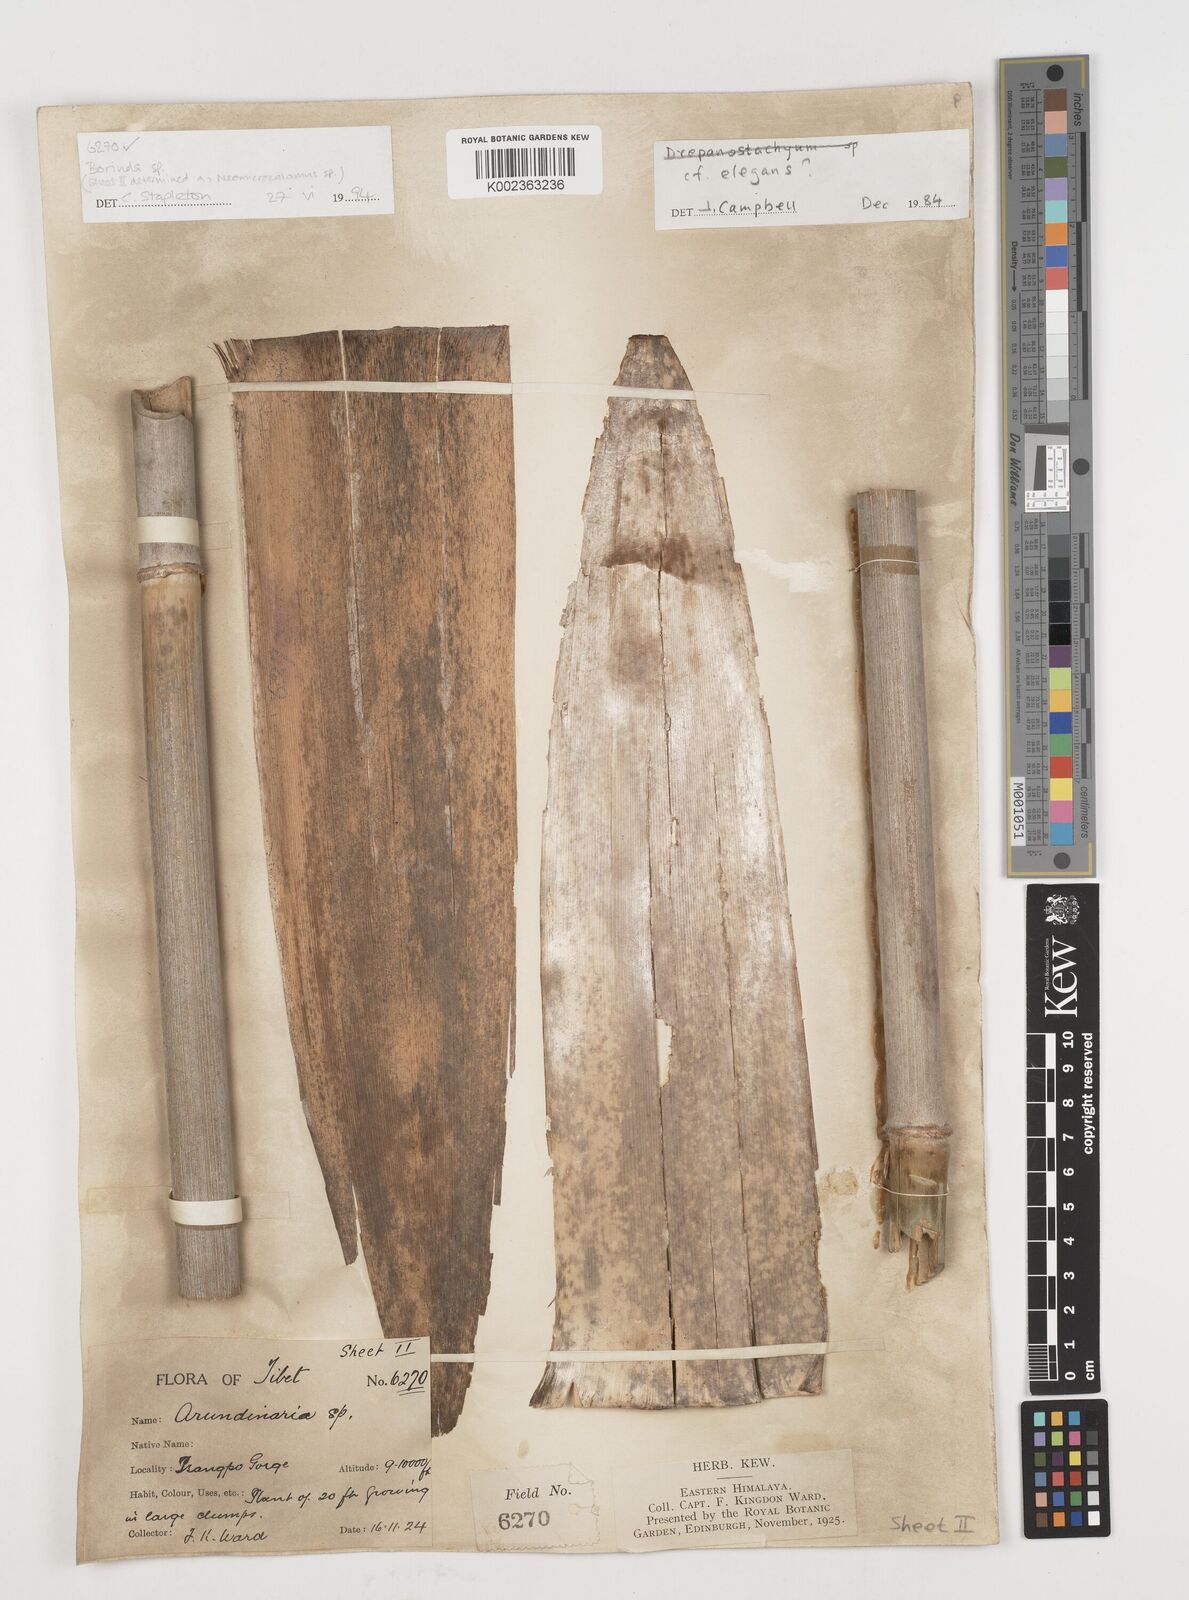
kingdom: Plantae
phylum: Tracheophyta
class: Liliopsida
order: Poales
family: Poaceae
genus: Fargesia
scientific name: Fargesia
